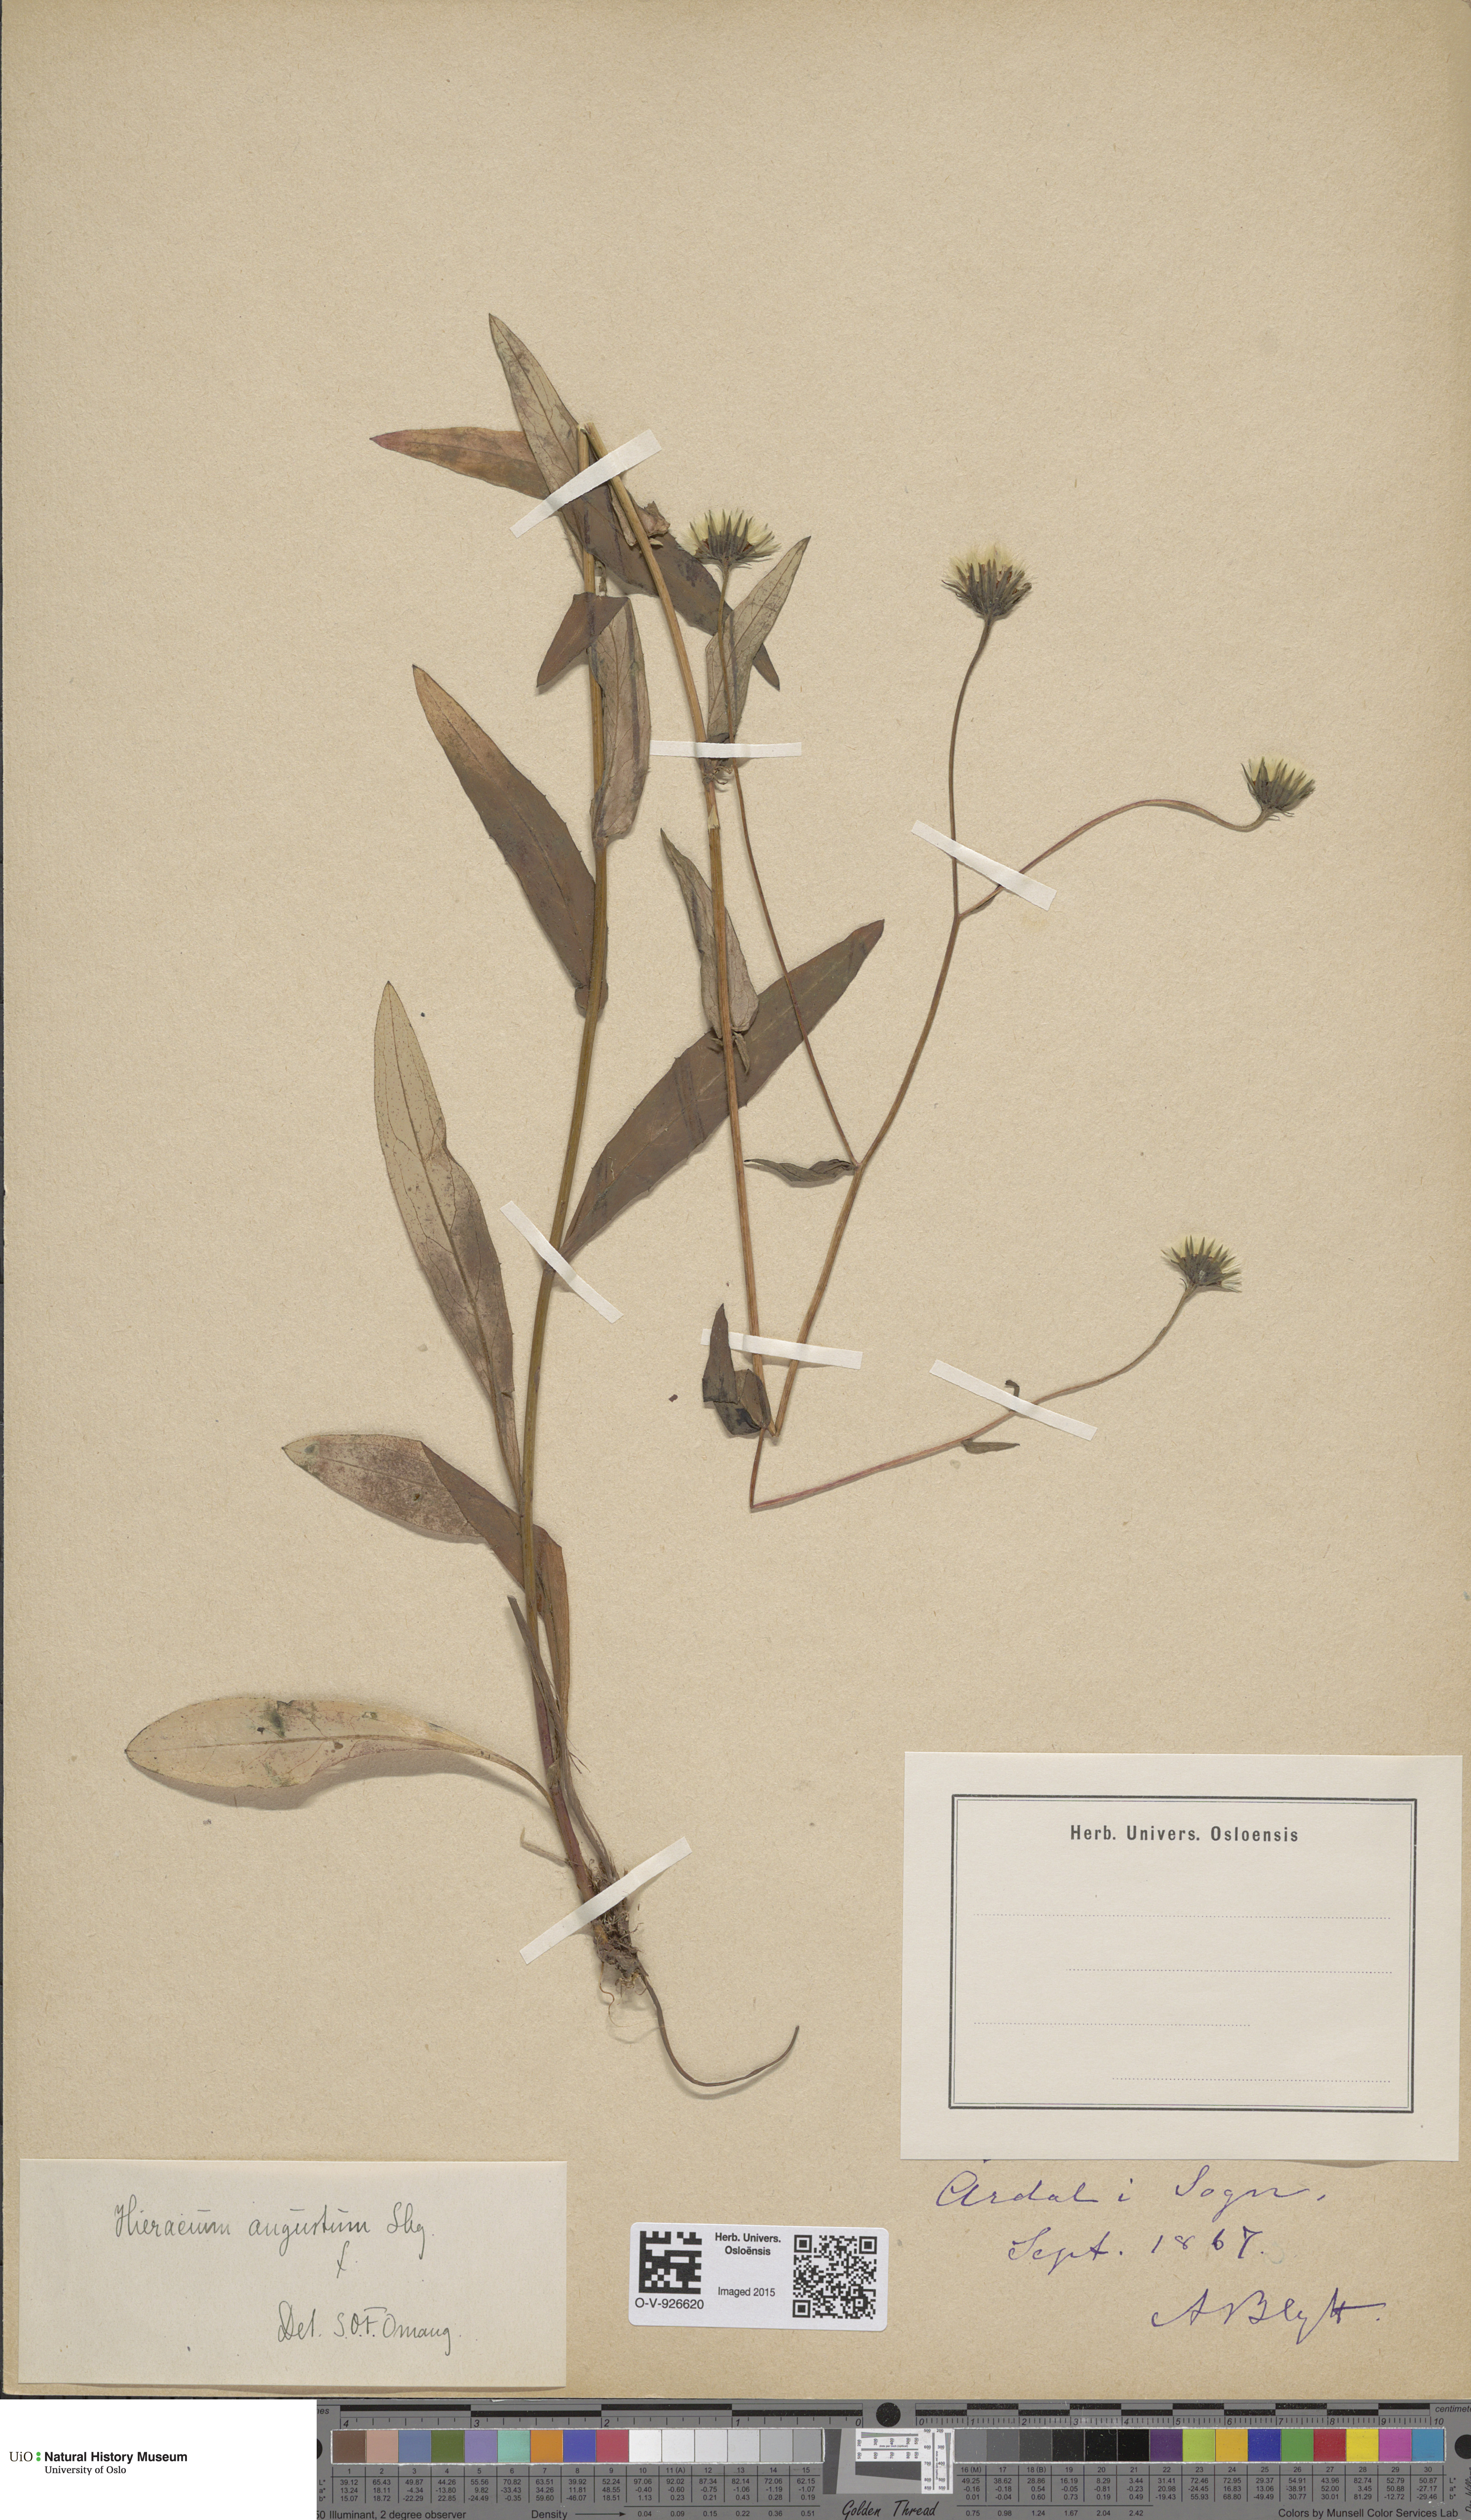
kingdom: Plantae
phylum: Tracheophyta
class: Magnoliopsida
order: Asterales
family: Asteraceae
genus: Hieracium
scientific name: Hieracium angustum
